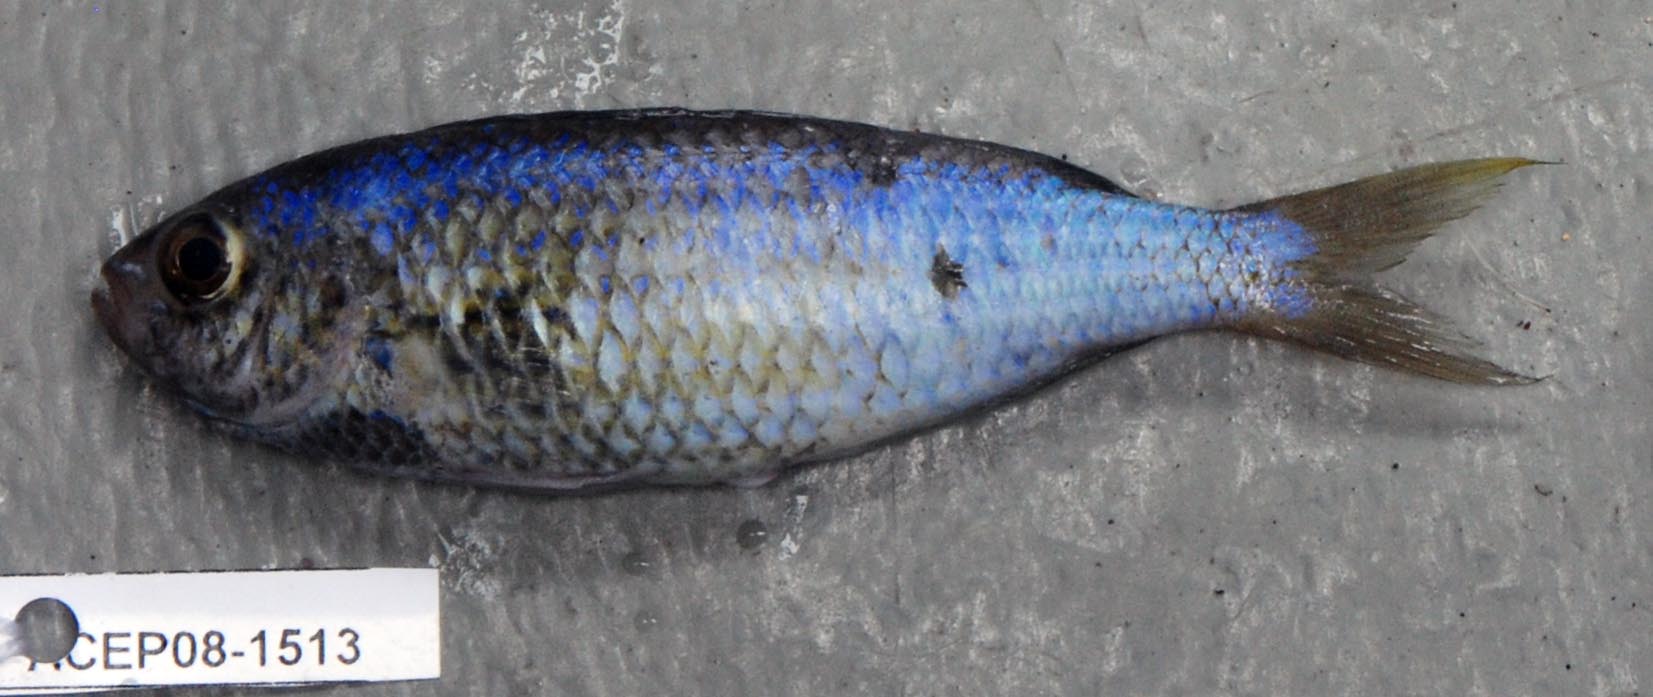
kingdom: Animalia
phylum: Chordata
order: Perciformes
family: Pomacentridae
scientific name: Pomacentridae
